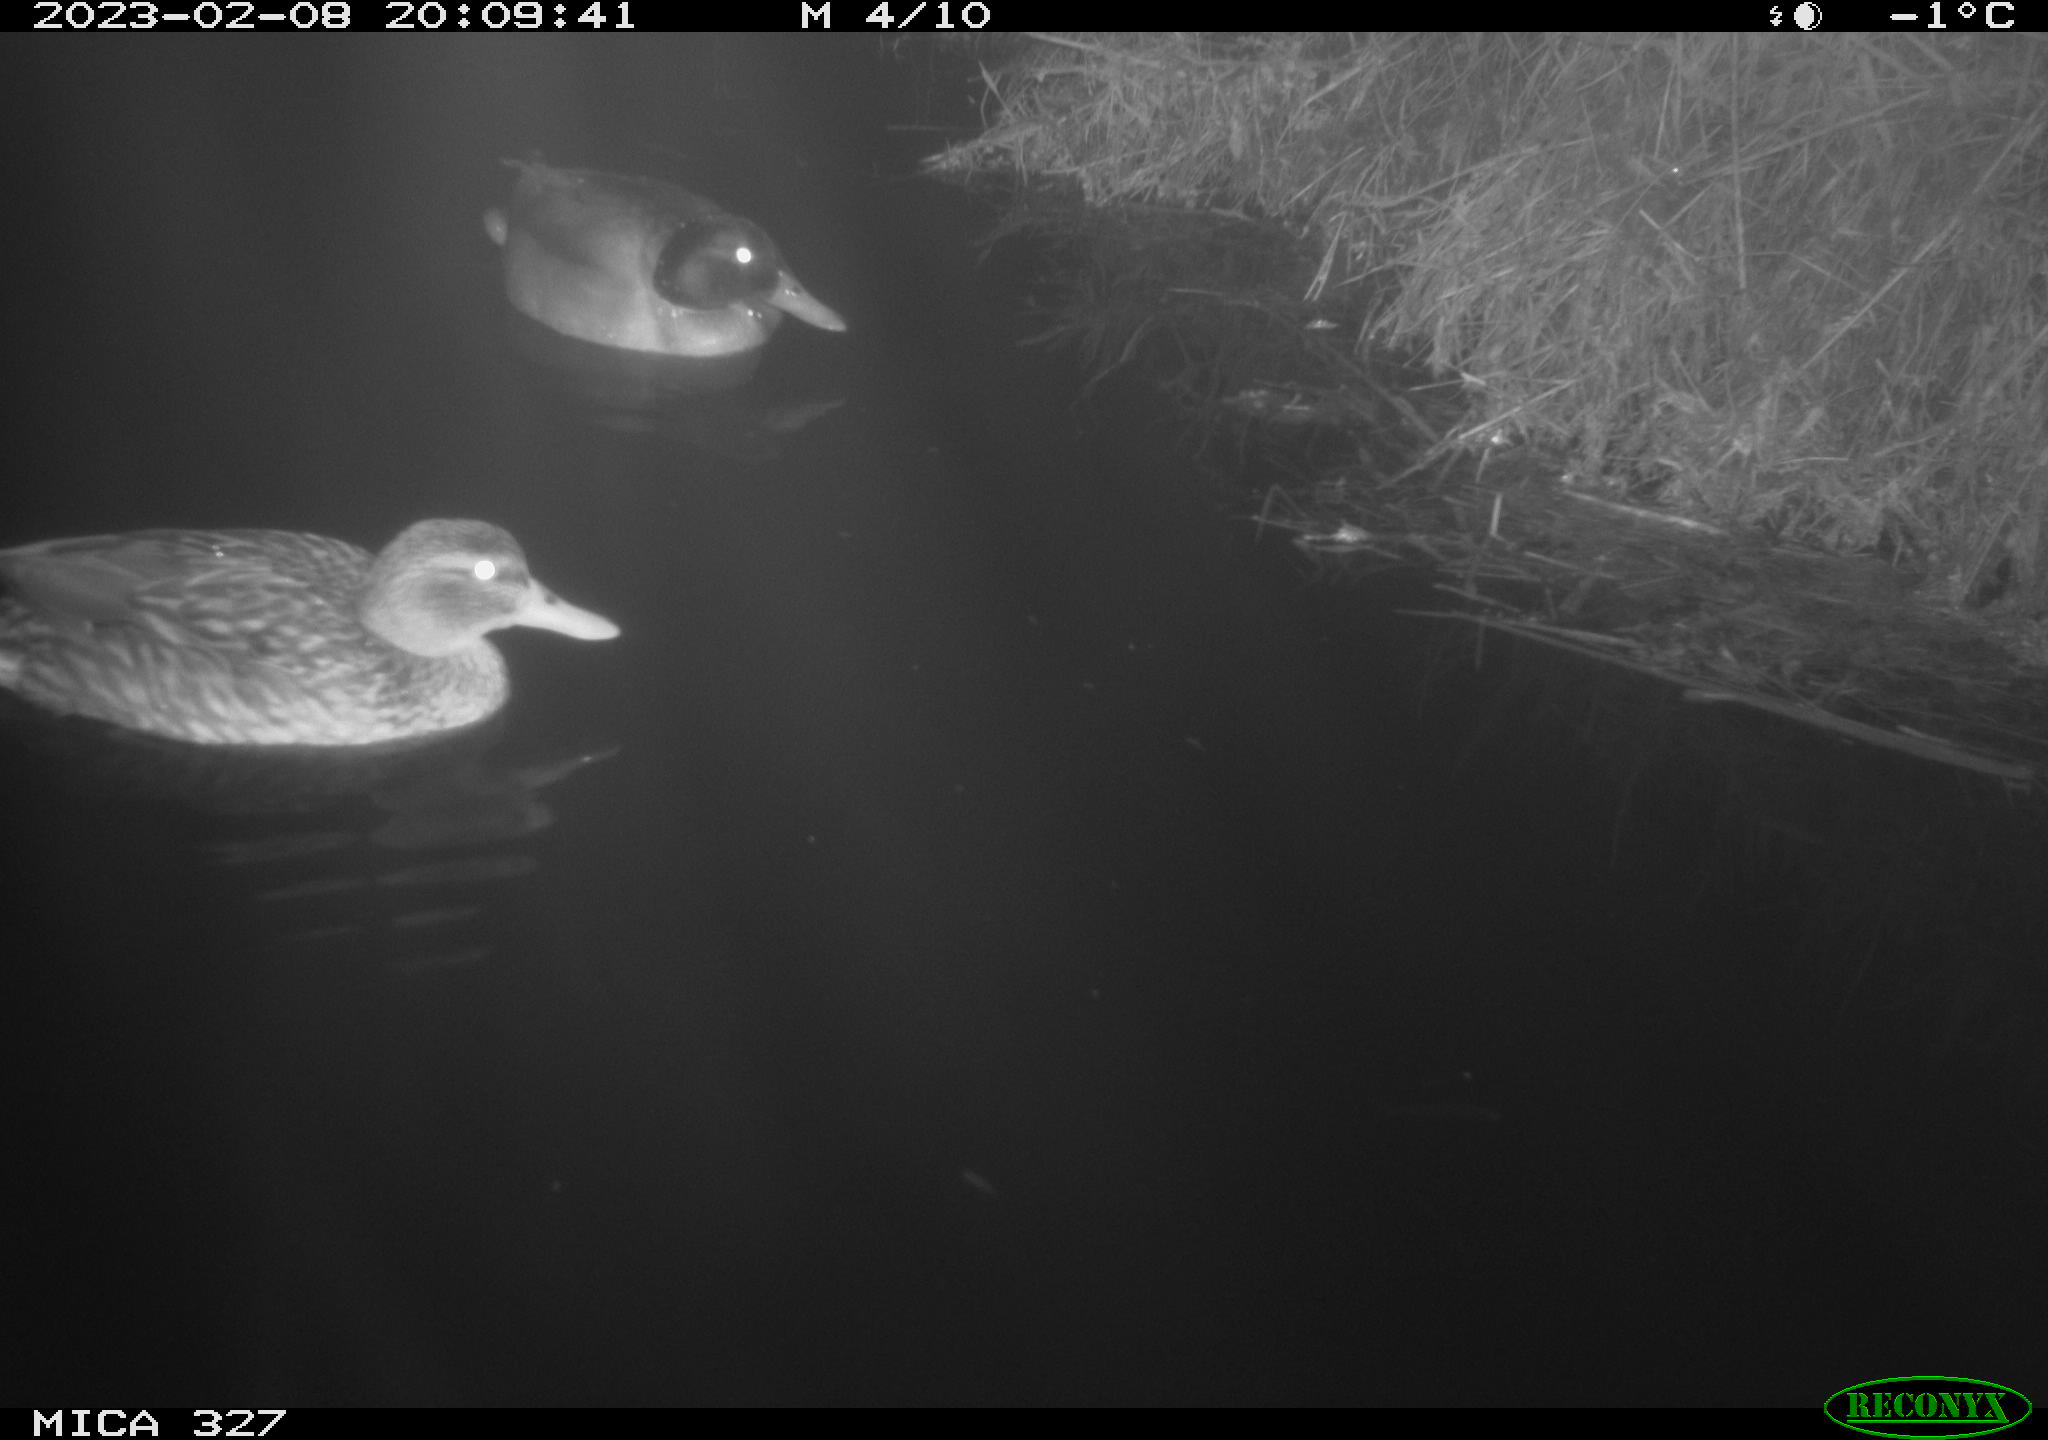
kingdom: Animalia
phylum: Chordata
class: Aves
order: Anseriformes
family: Anatidae
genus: Anas
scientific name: Anas
